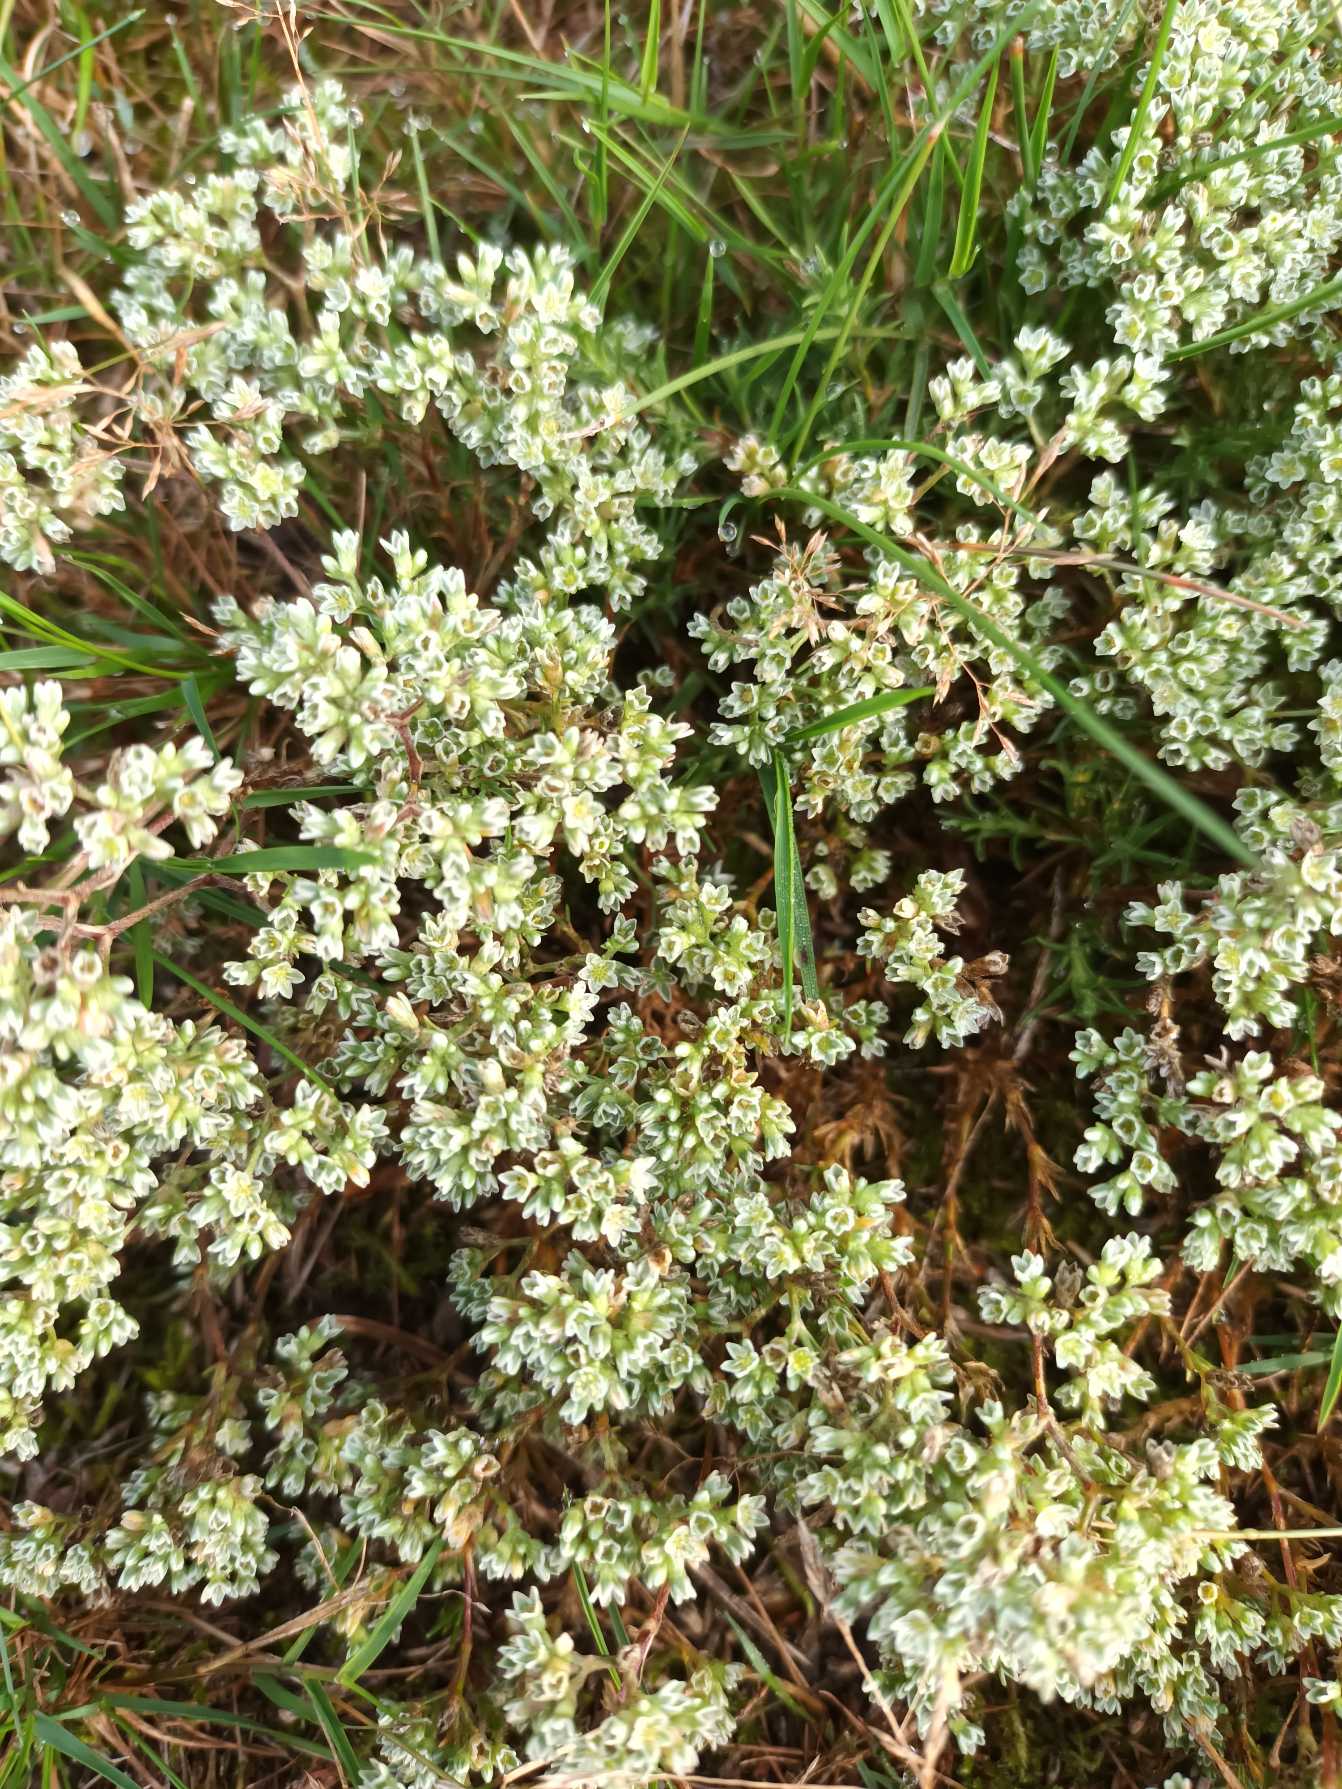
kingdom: Plantae
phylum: Tracheophyta
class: Magnoliopsida
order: Caryophyllales
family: Caryophyllaceae
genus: Scleranthus
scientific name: Scleranthus perennis
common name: Flerårig knavel
